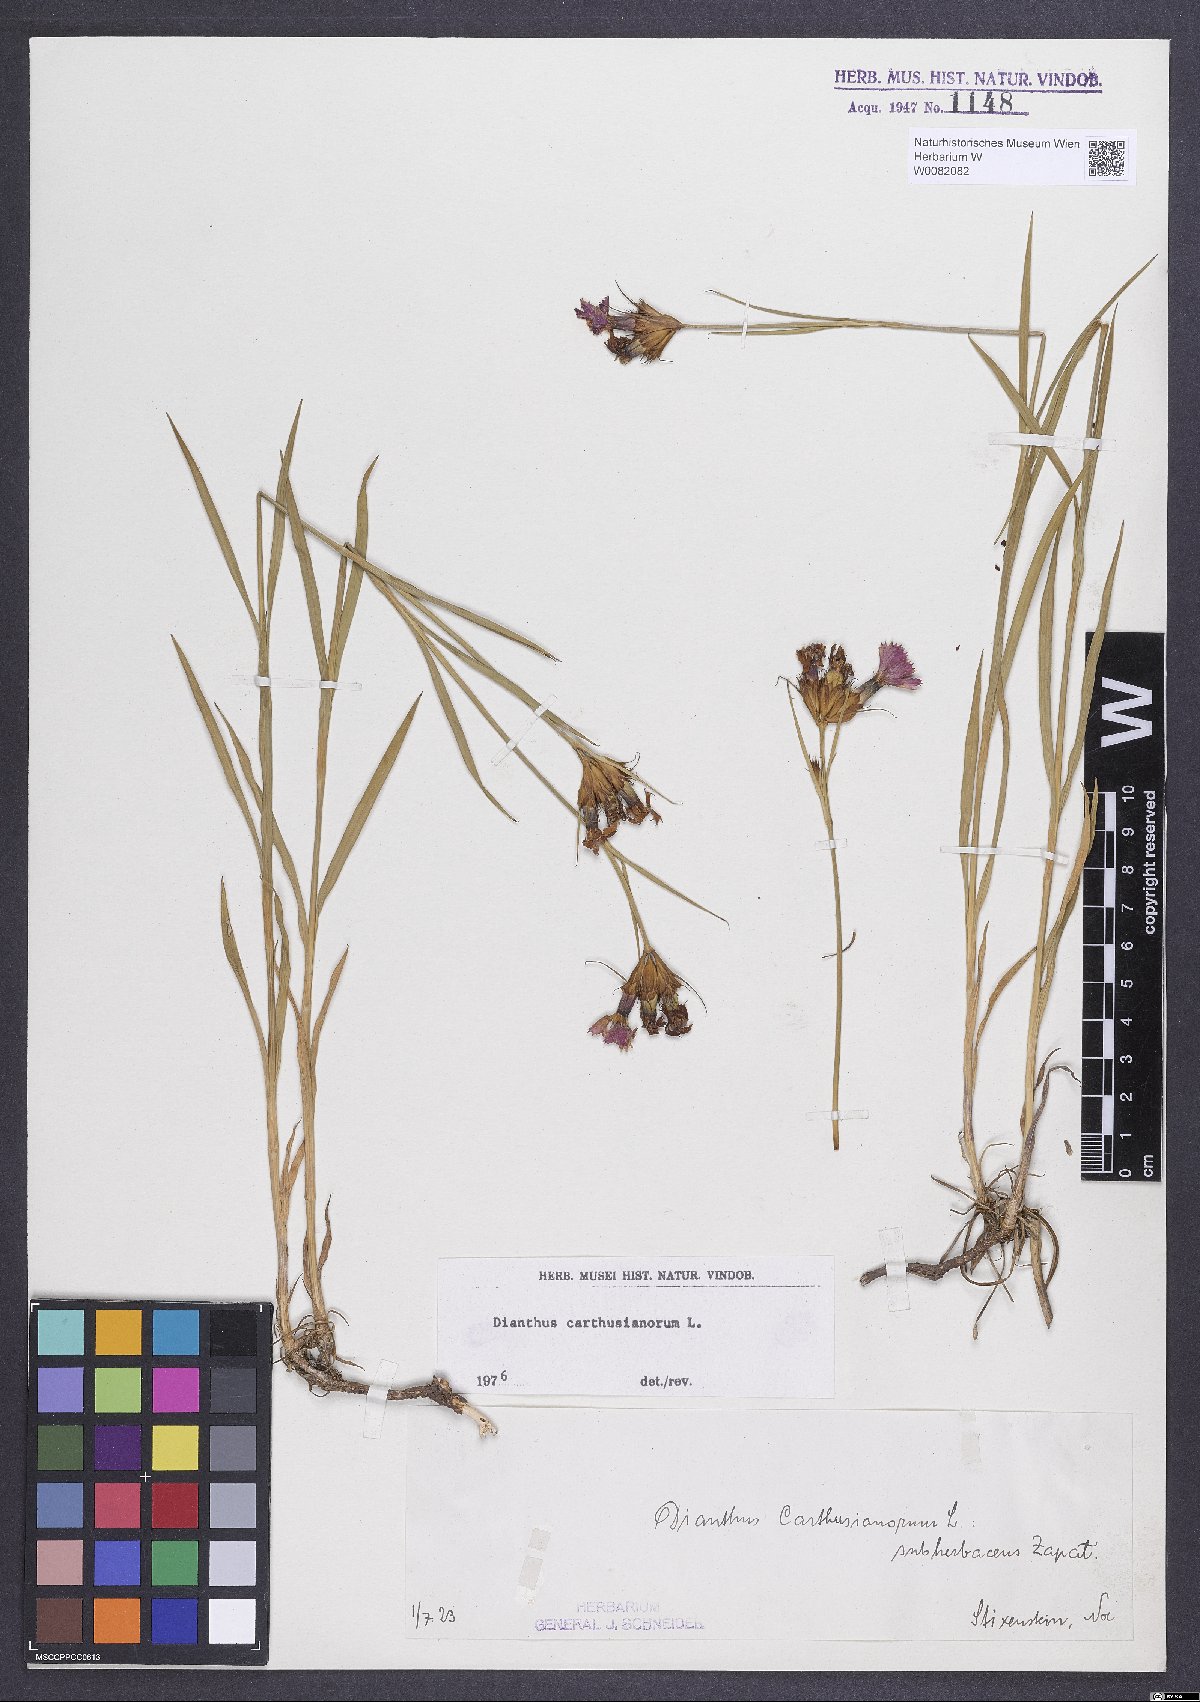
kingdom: Plantae
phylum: Tracheophyta
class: Magnoliopsida
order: Caryophyllales
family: Caryophyllaceae
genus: Dianthus
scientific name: Dianthus carthusianorum
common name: Carthusian pink
